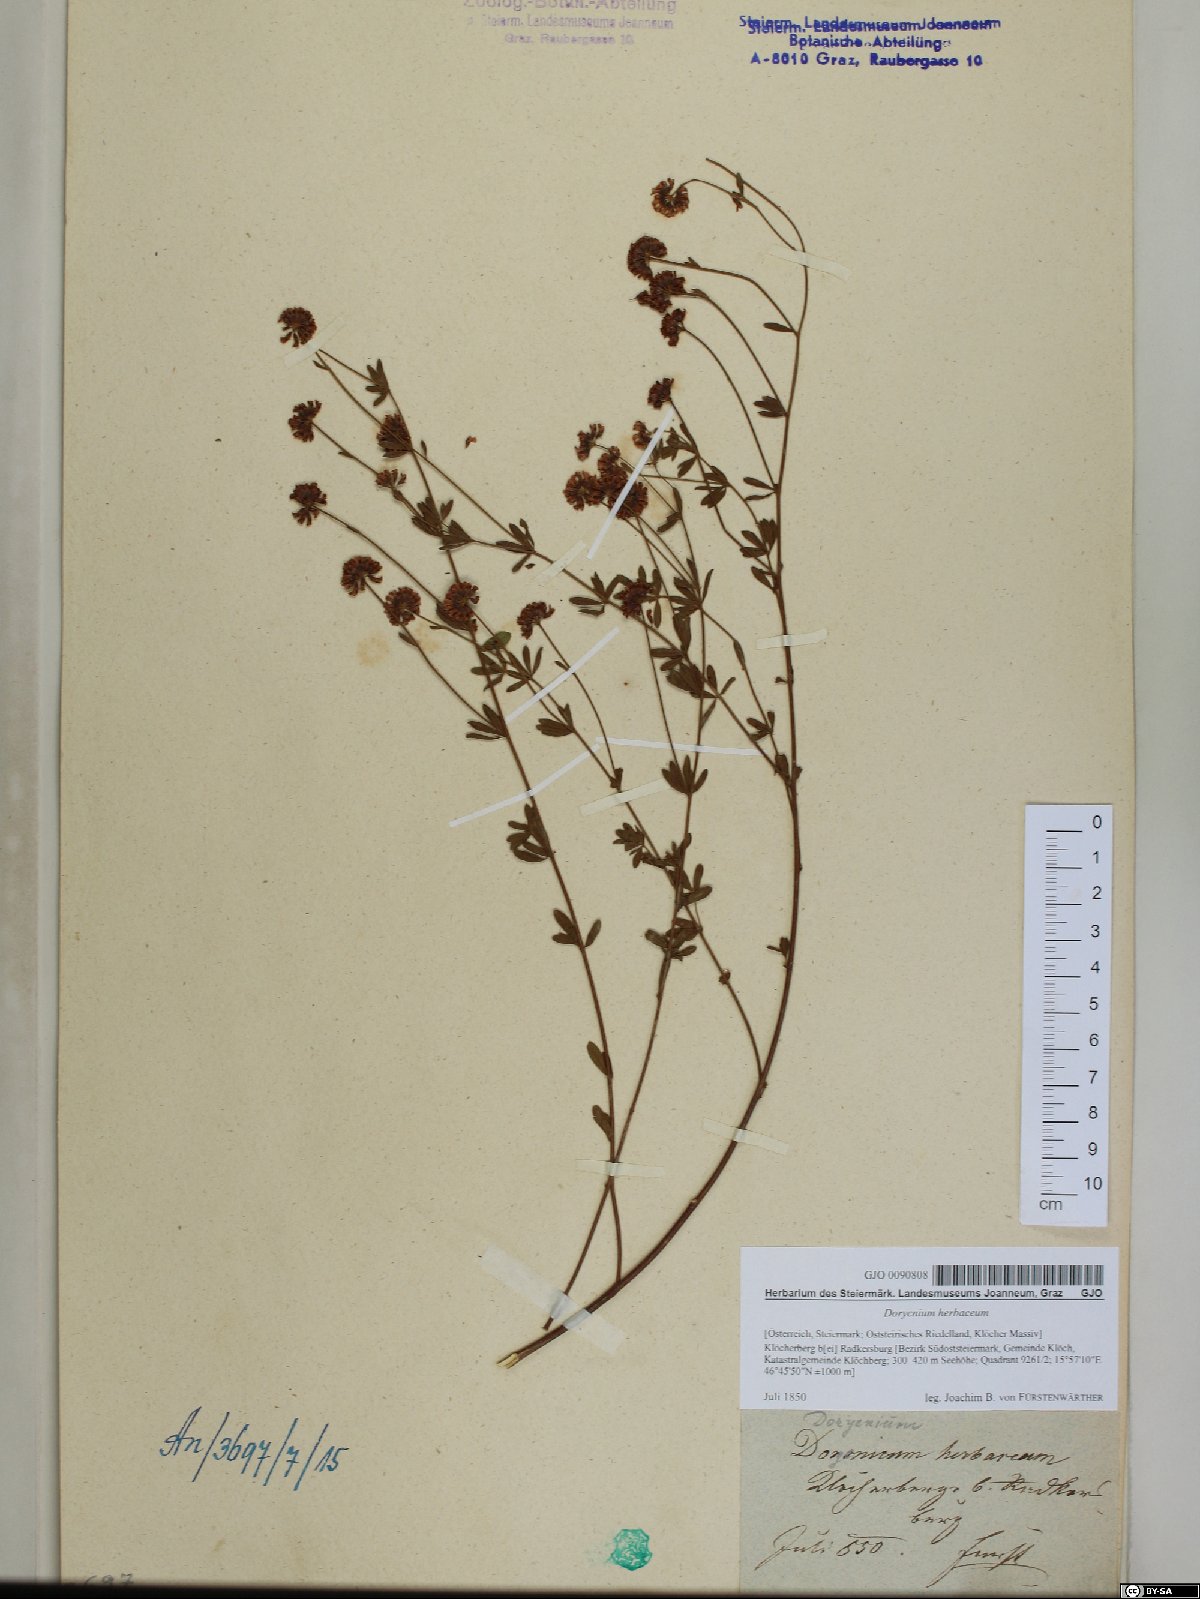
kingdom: Plantae
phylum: Tracheophyta
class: Magnoliopsida
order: Fabales
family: Fabaceae
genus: Lotus
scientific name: Lotus herbaceus
